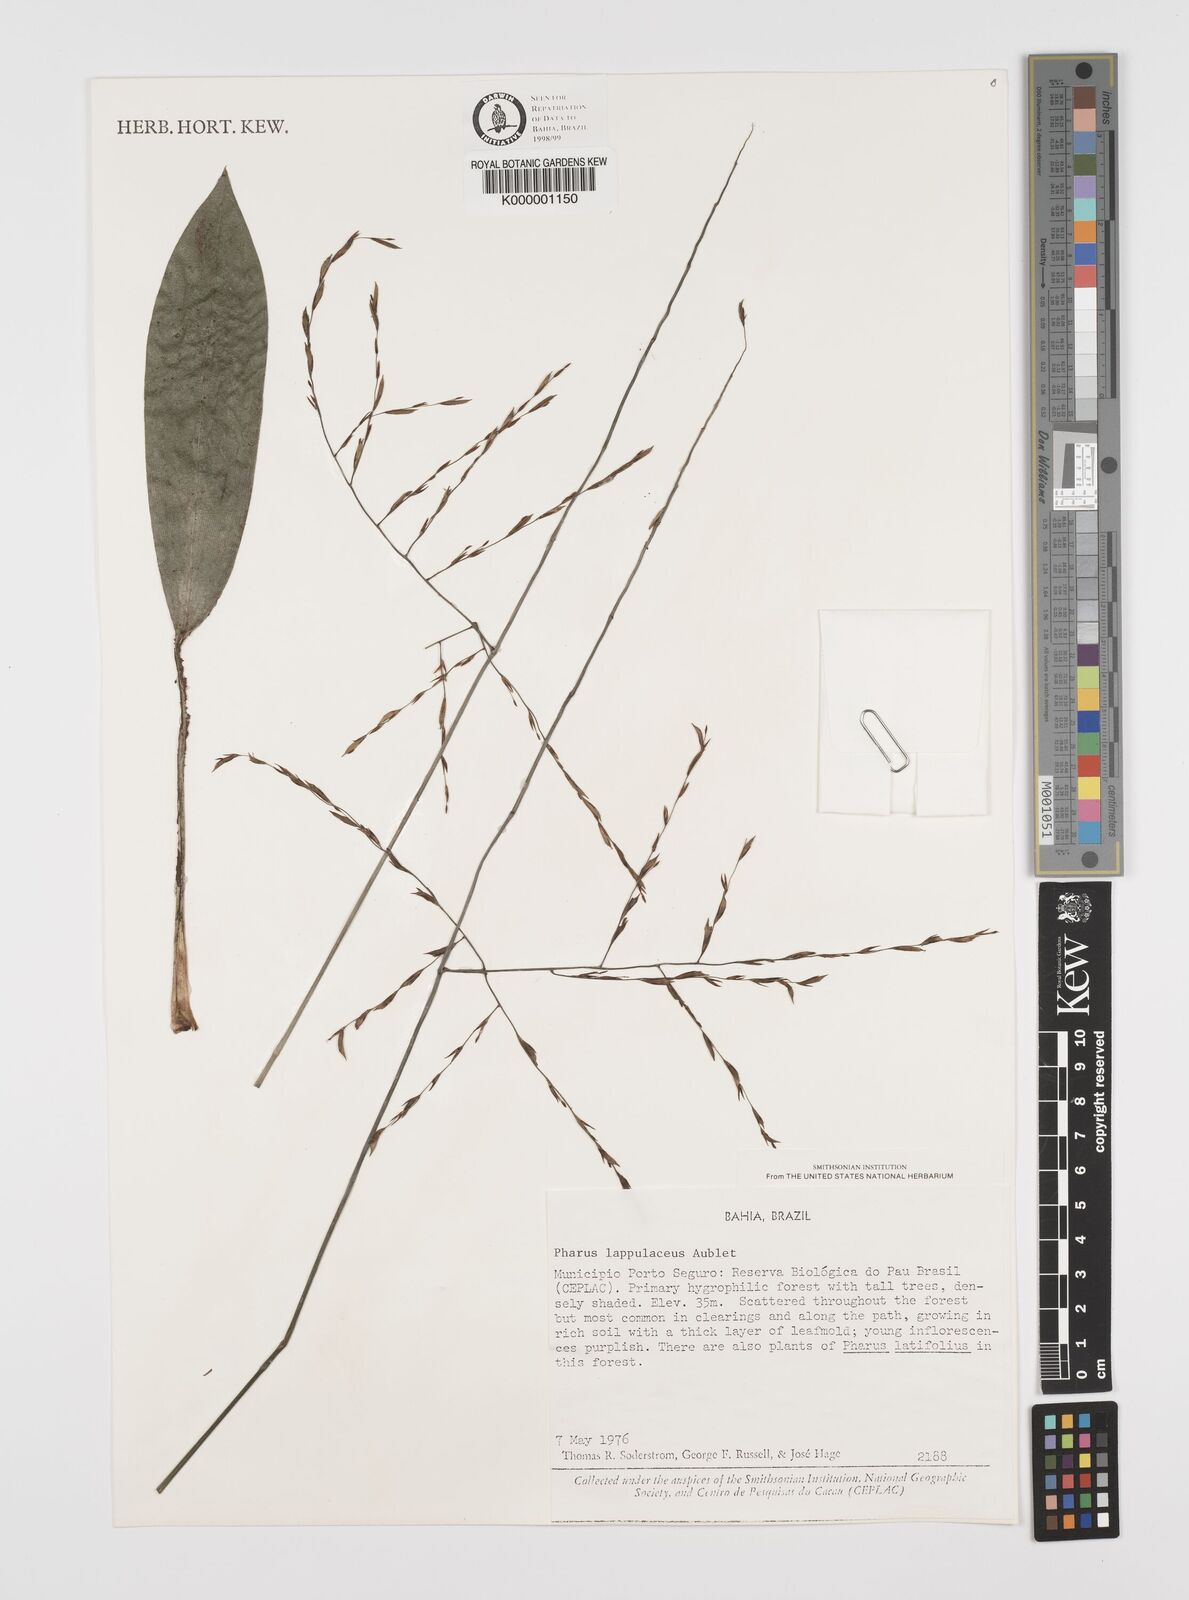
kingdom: Plantae
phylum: Tracheophyta
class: Liliopsida
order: Poales
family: Poaceae
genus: Pharus
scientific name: Pharus lappulaceus
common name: Creeping leafstalk grass
